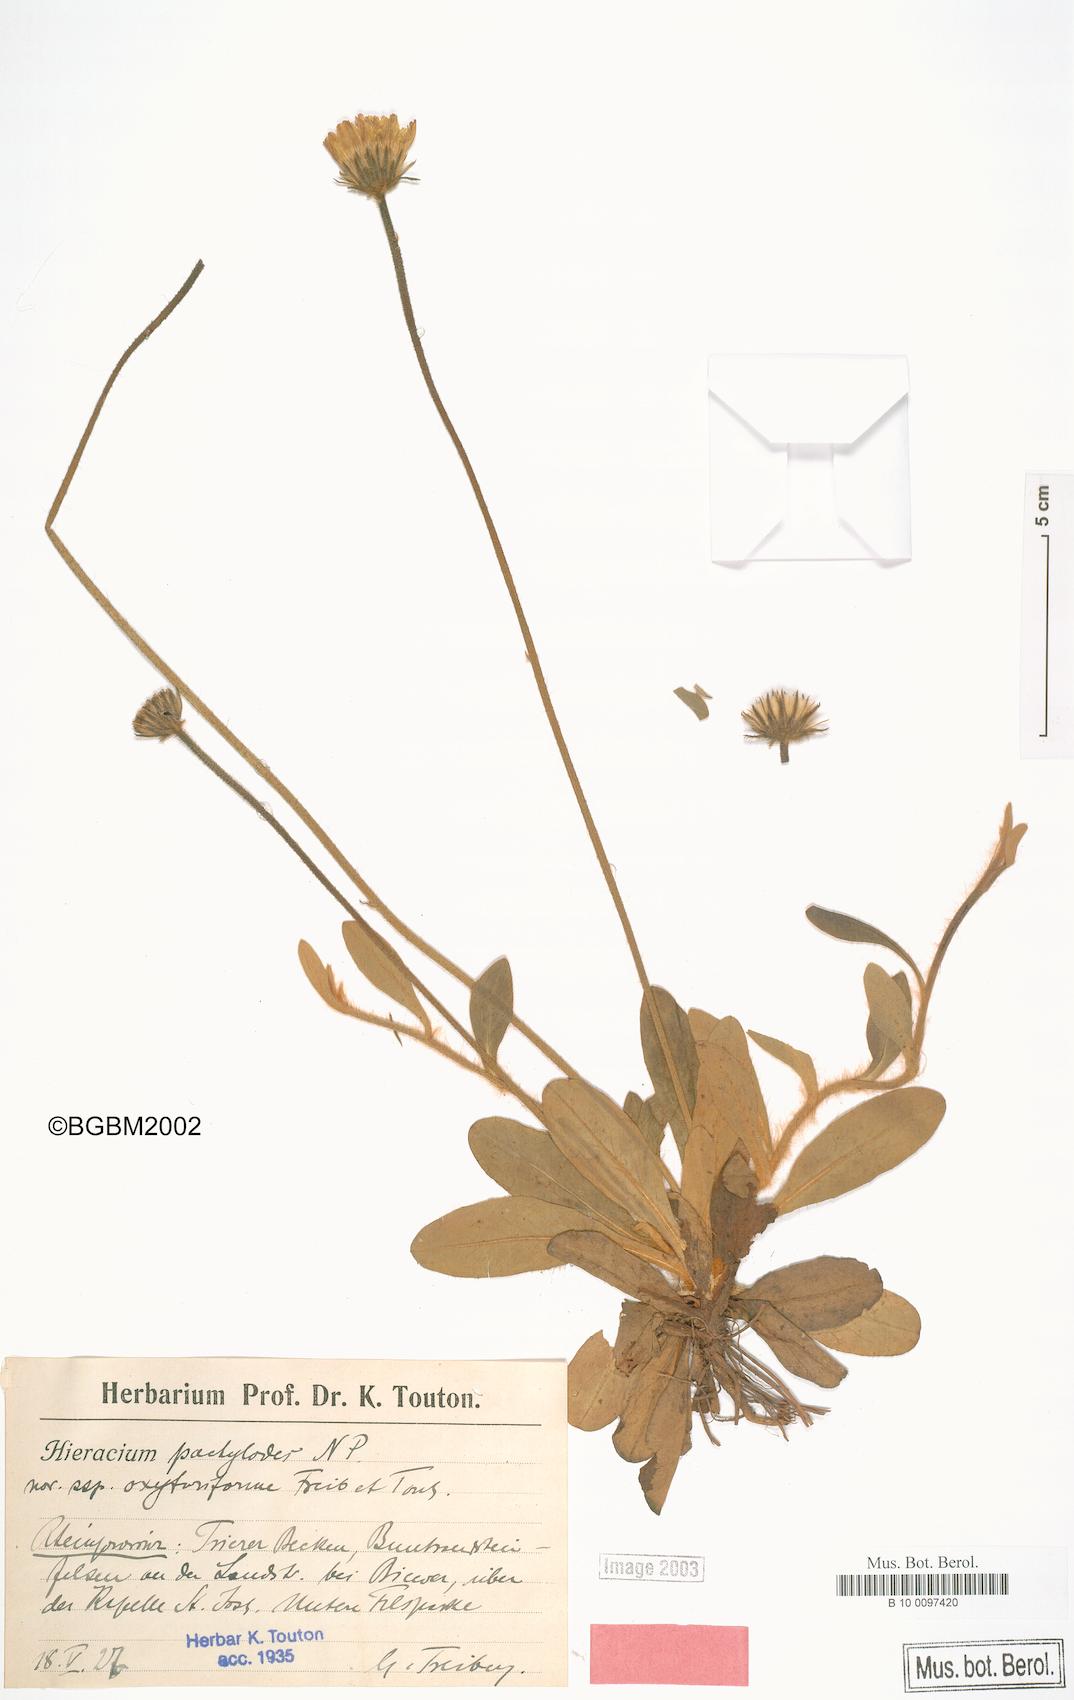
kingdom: Plantae
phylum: Tracheophyta
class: Magnoliopsida
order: Asterales
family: Asteraceae
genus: Pilosella
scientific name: Pilosella longisquama
